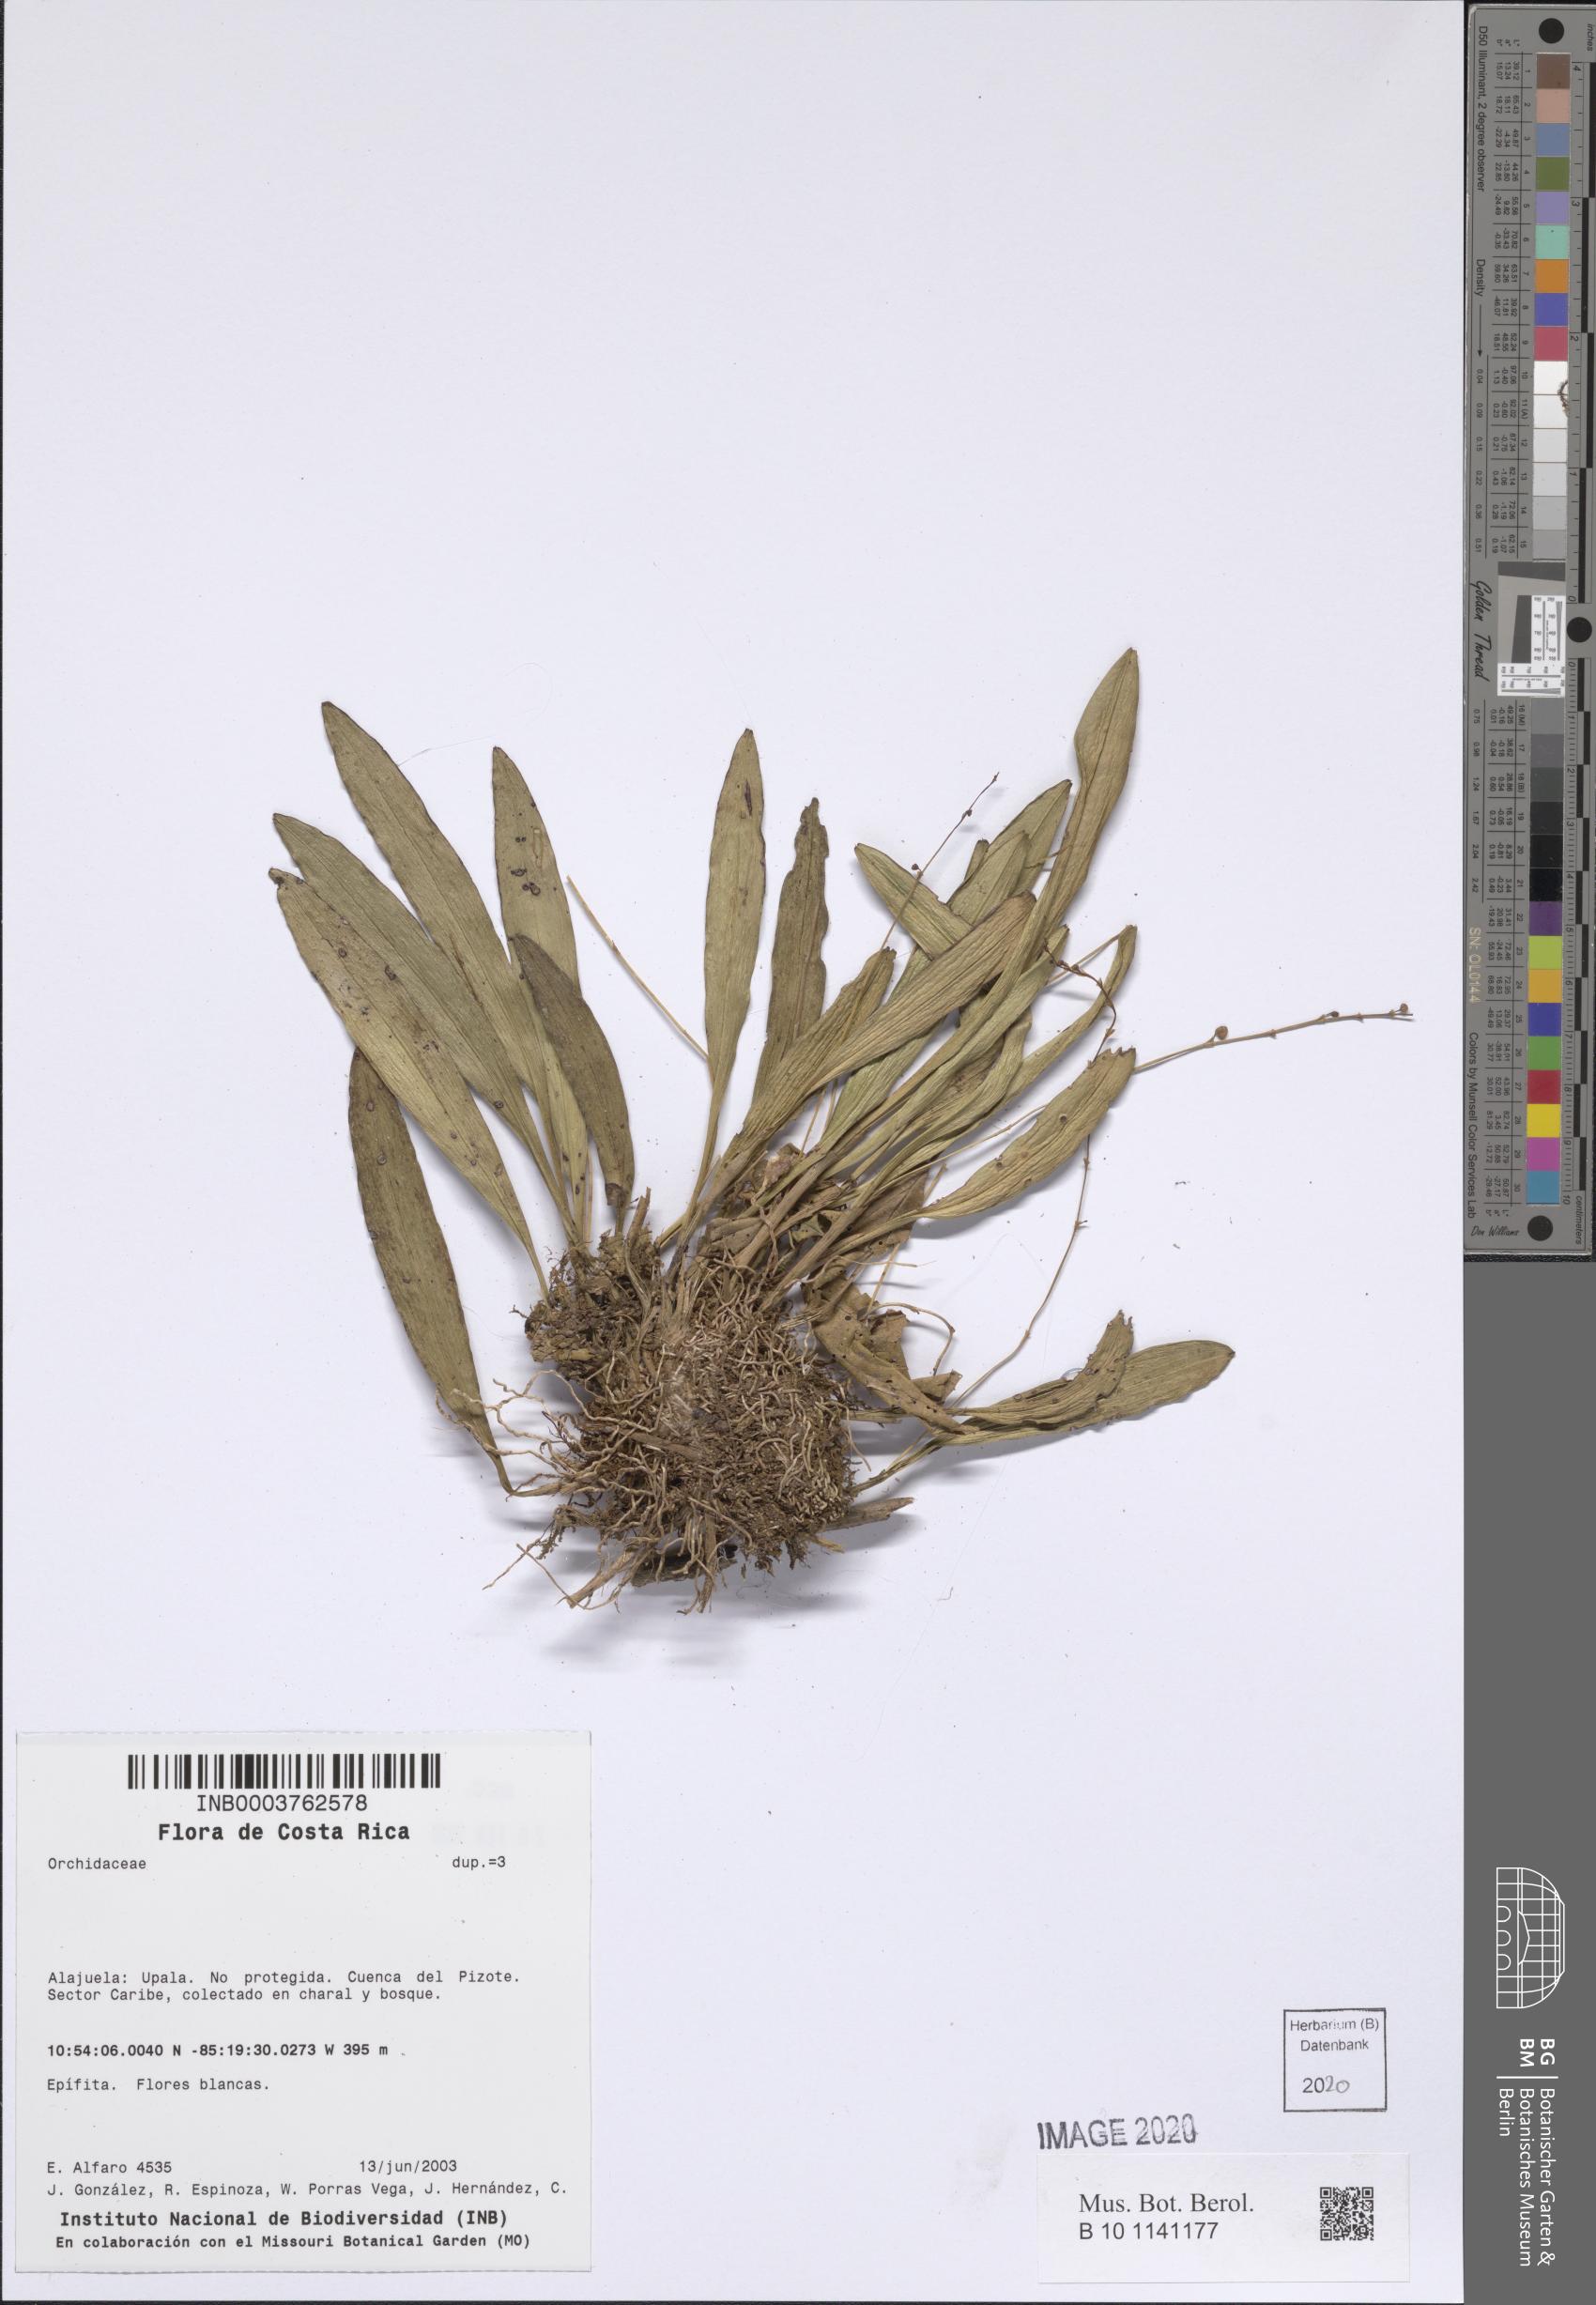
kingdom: Plantae
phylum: Tracheophyta
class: Liliopsida
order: Asparagales
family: Orchidaceae
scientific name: Orchidaceae
